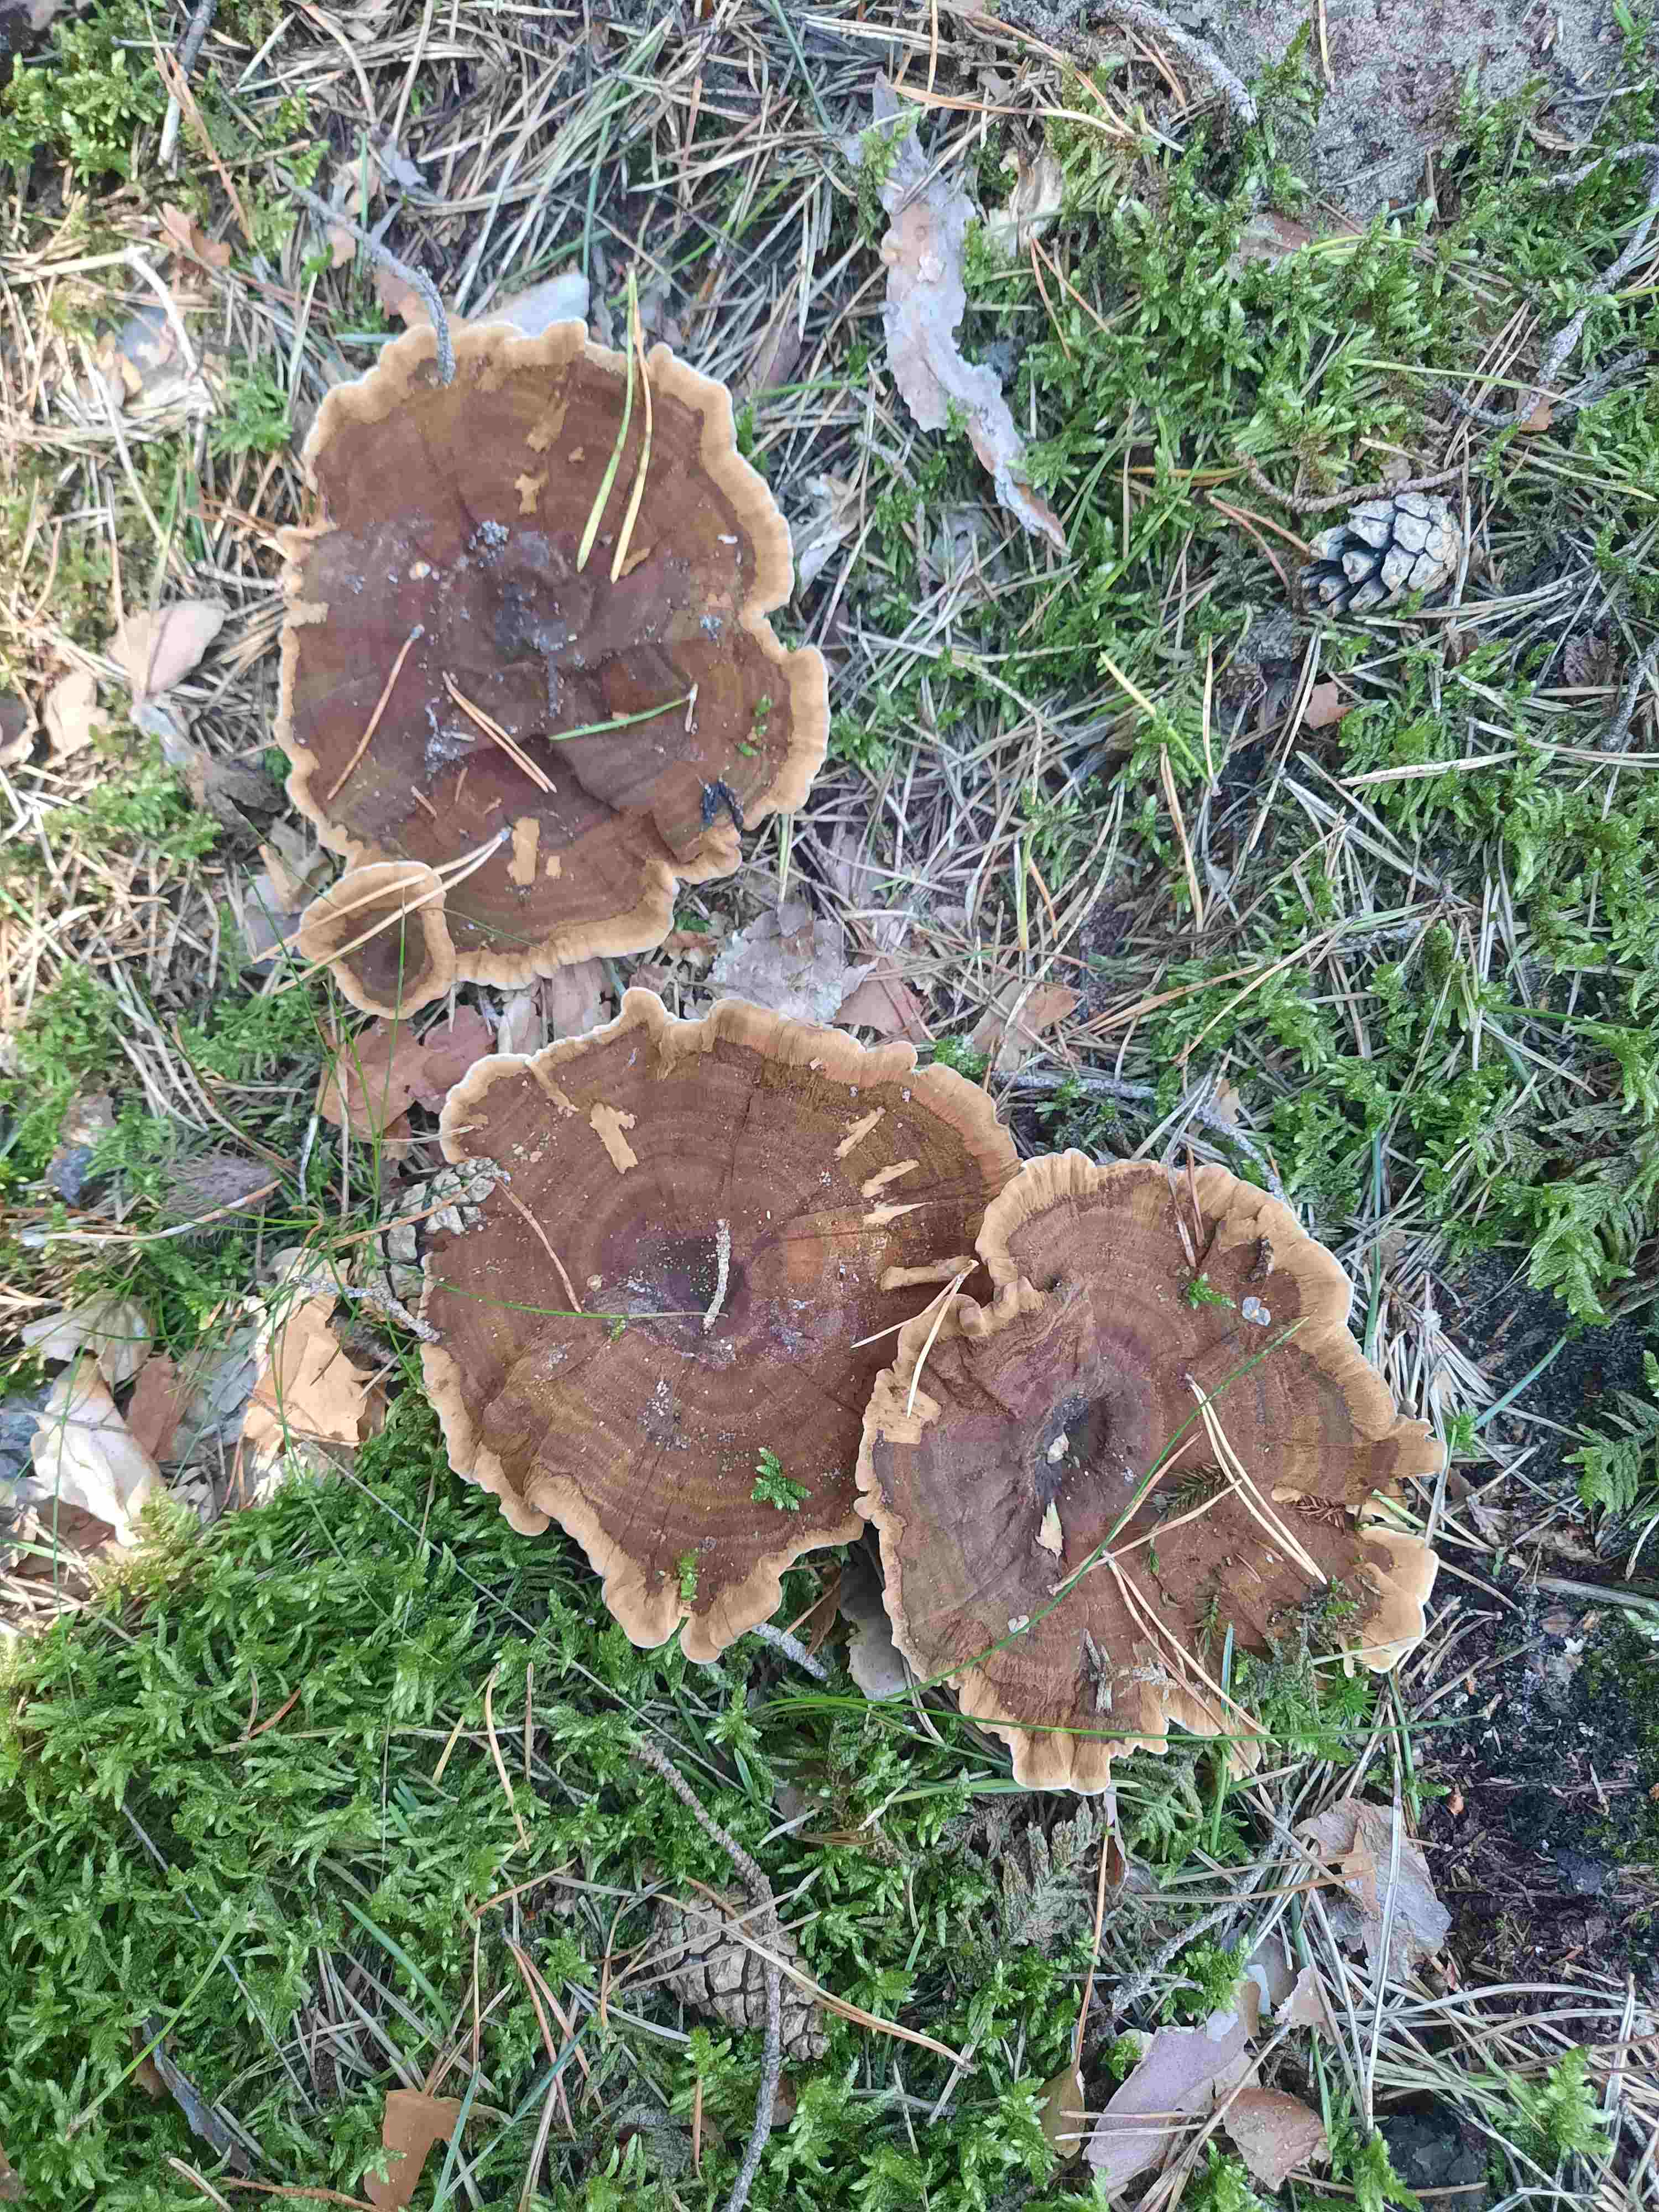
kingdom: Fungi
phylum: Basidiomycota
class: Agaricomycetes
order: Hymenochaetales
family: Hymenochaetaceae
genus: Coltricia
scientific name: Coltricia perennis
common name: almindelig sandporesvamp
